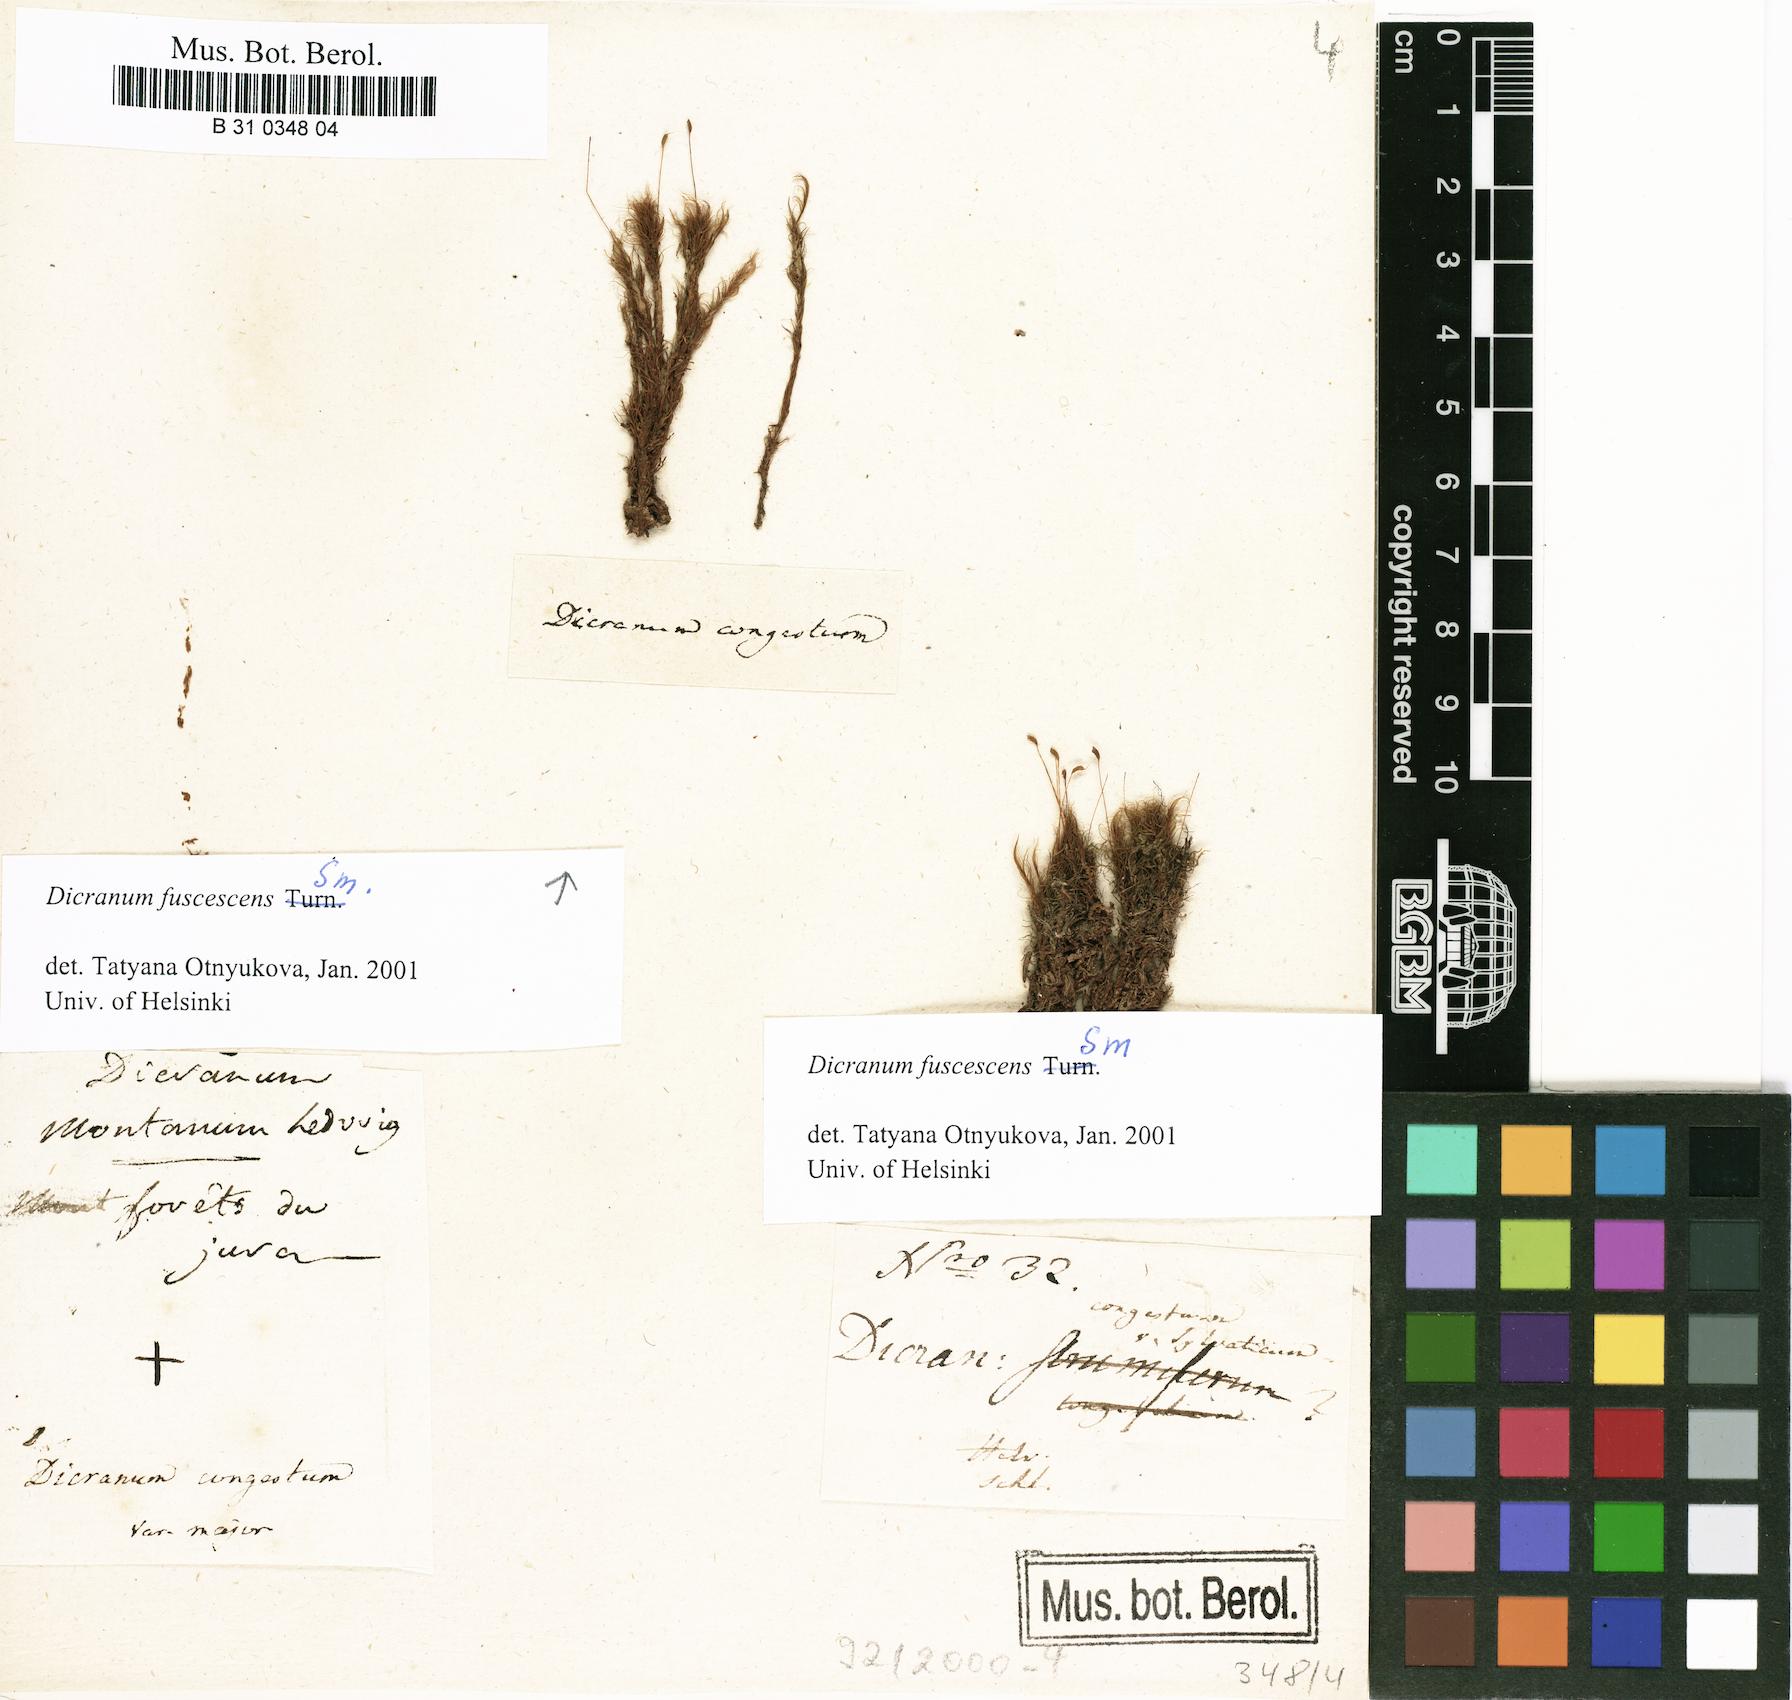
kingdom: Plantae
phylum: Bryophyta
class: Bryopsida
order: Dicranales
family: Dicranaceae
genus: Dicranum
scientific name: Dicranum fuscescens
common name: Curly heron's-bill moss
